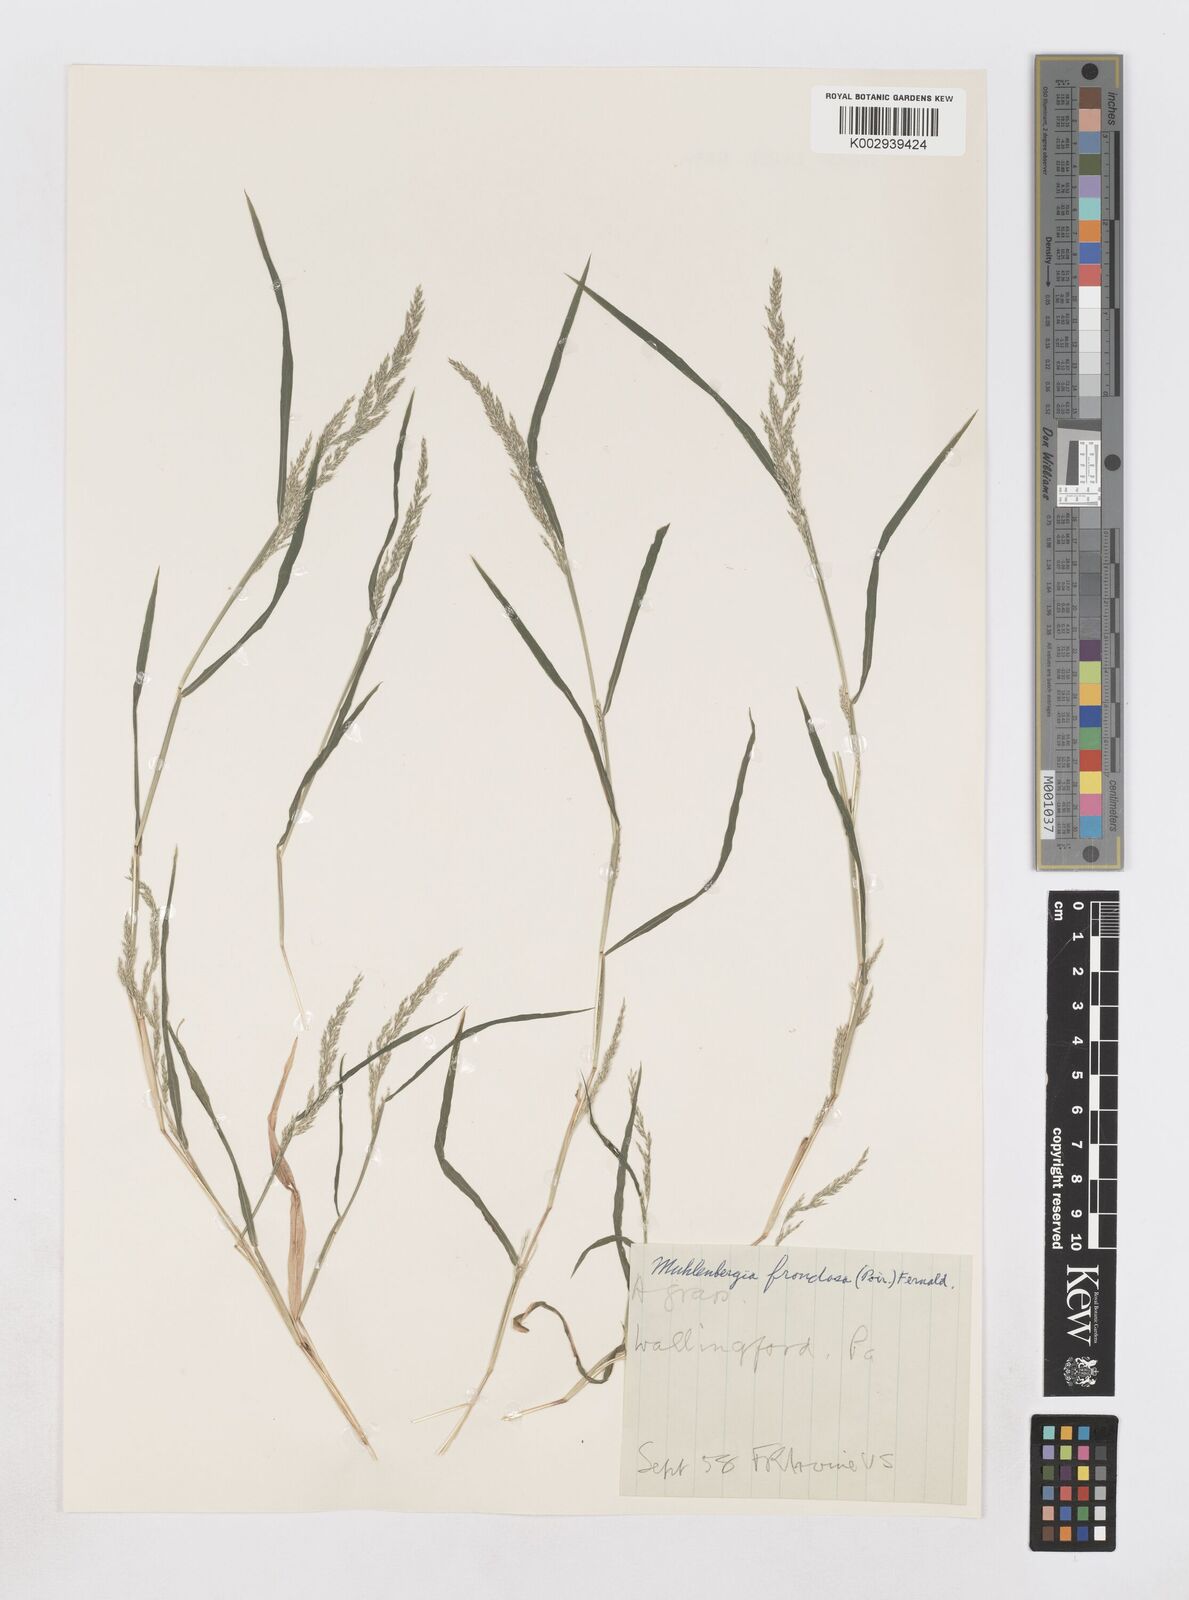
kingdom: Plantae
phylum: Tracheophyta
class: Liliopsida
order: Poales
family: Poaceae
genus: Muhlenbergia
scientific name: Muhlenbergia frondosa
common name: Common satingrass
